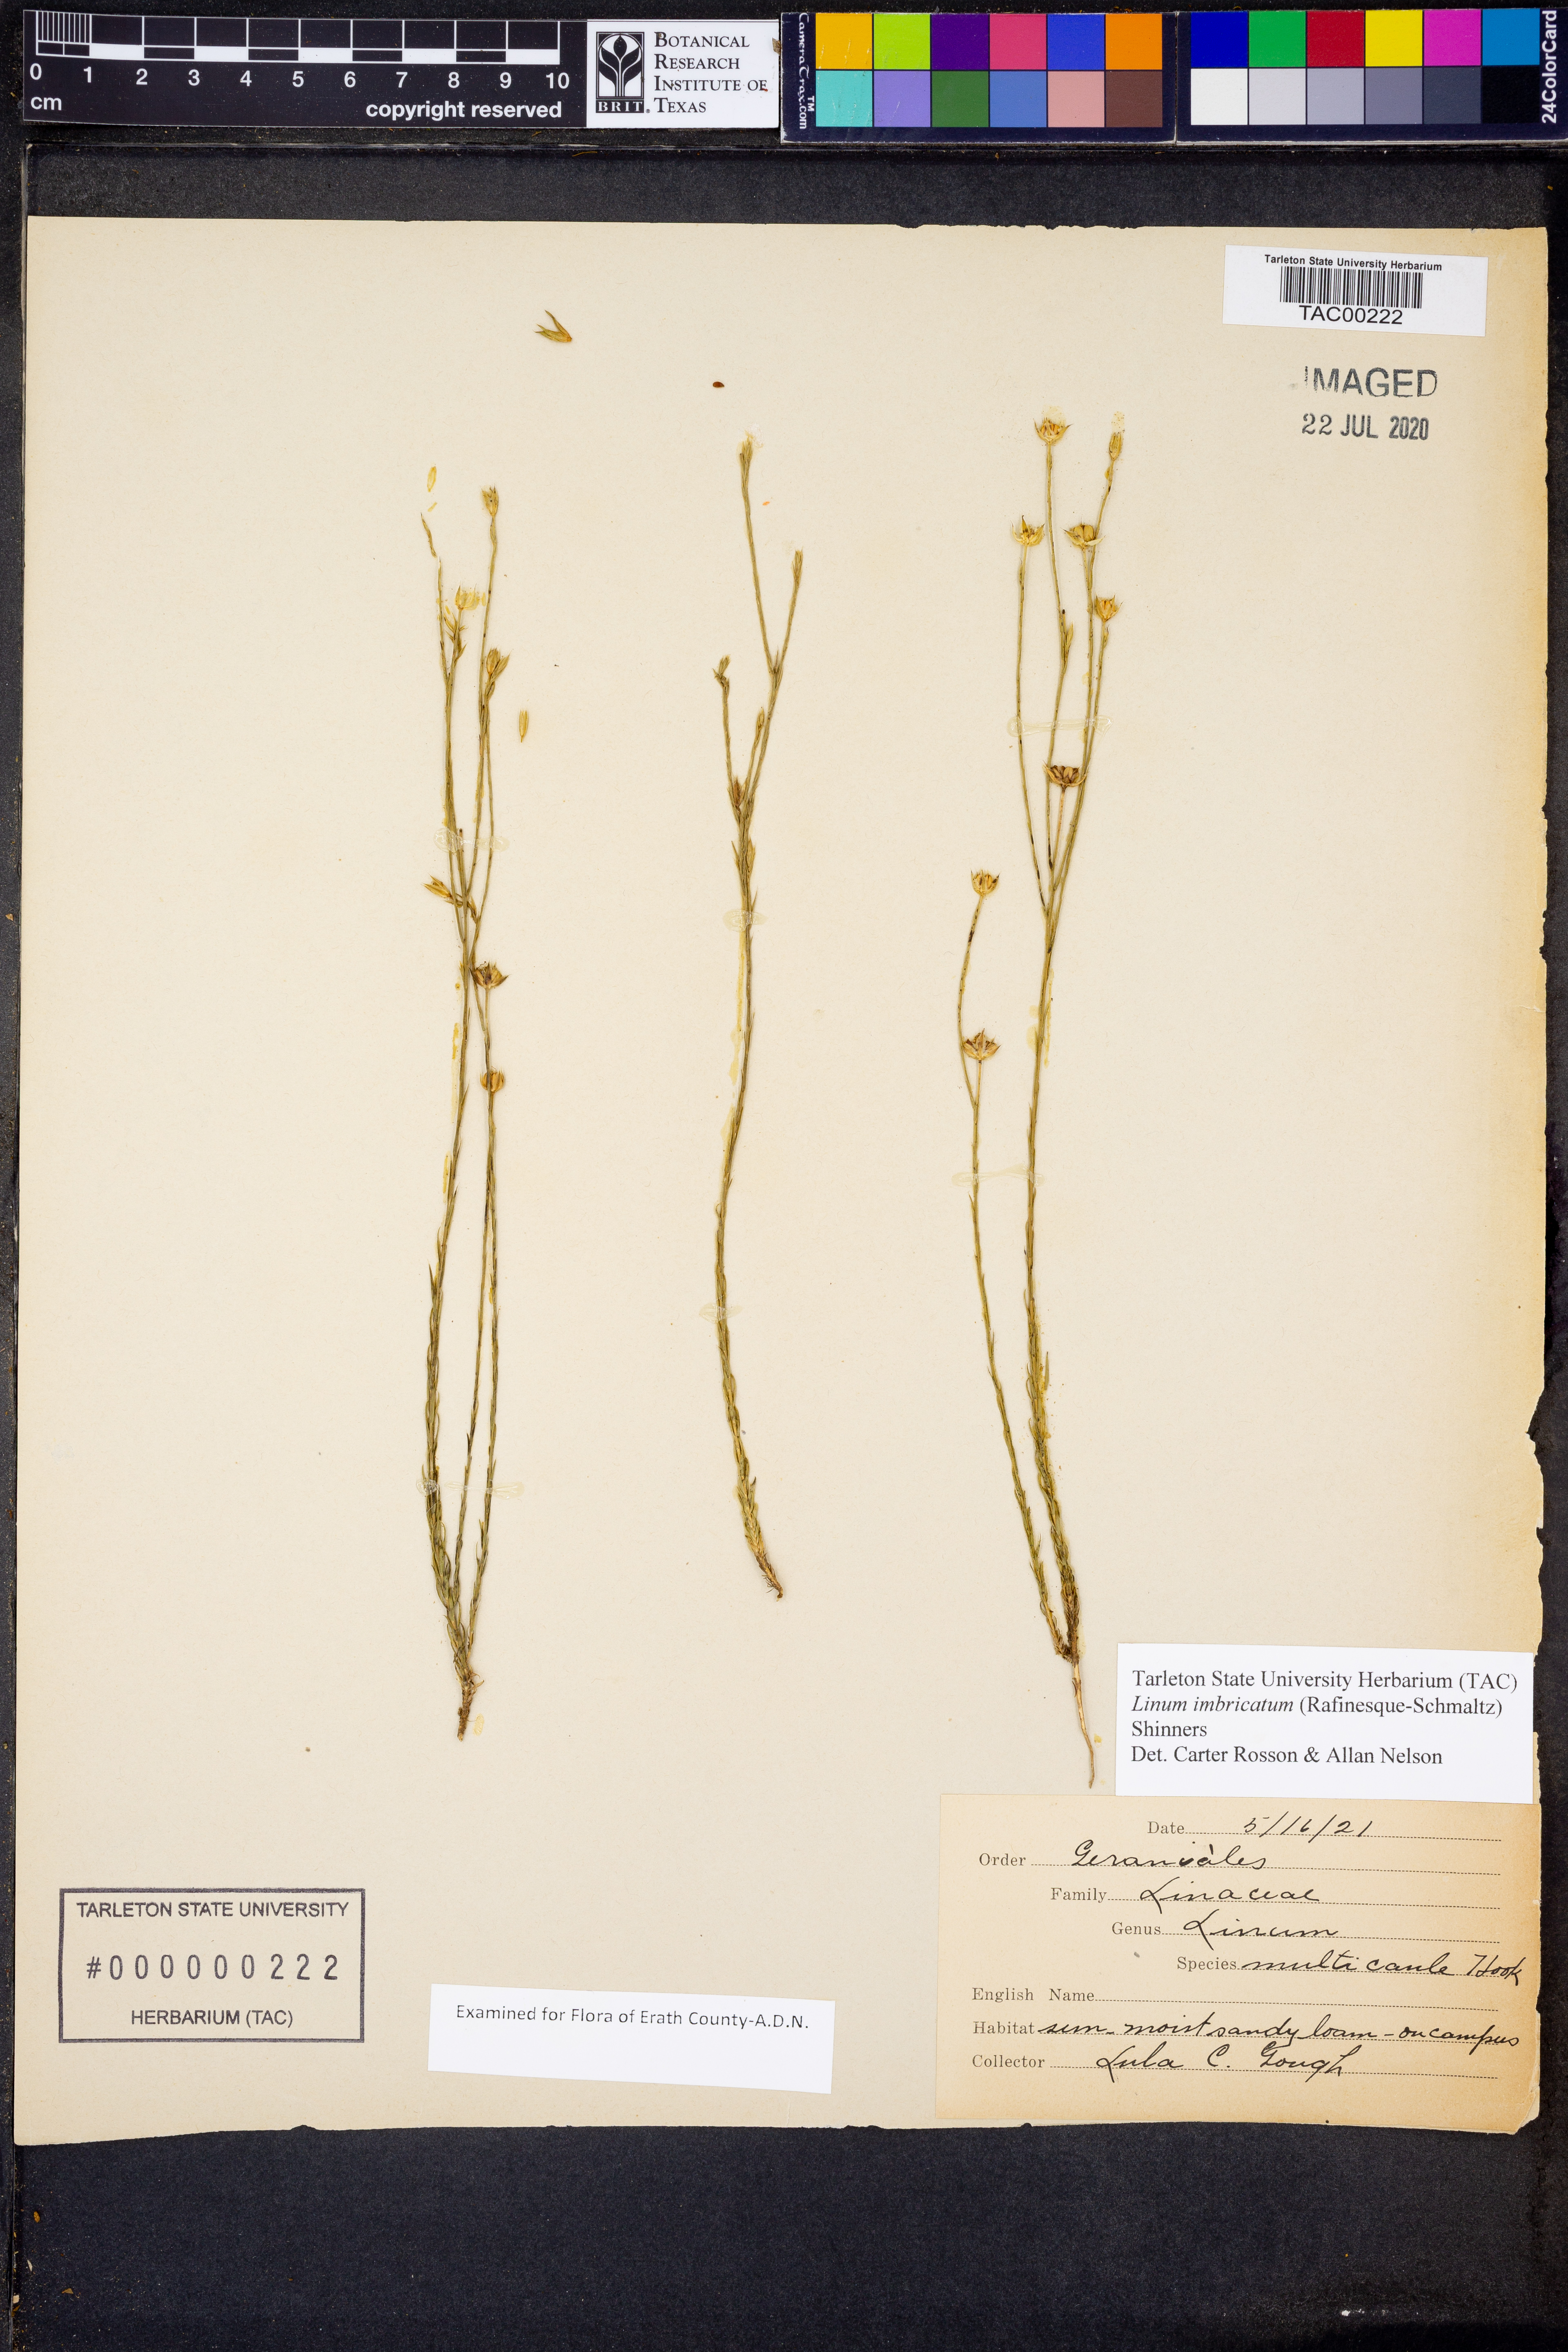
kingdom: Plantae
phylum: Tracheophyta
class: Magnoliopsida
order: Malpighiales
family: Linaceae
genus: Linum
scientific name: Linum imbricatum
